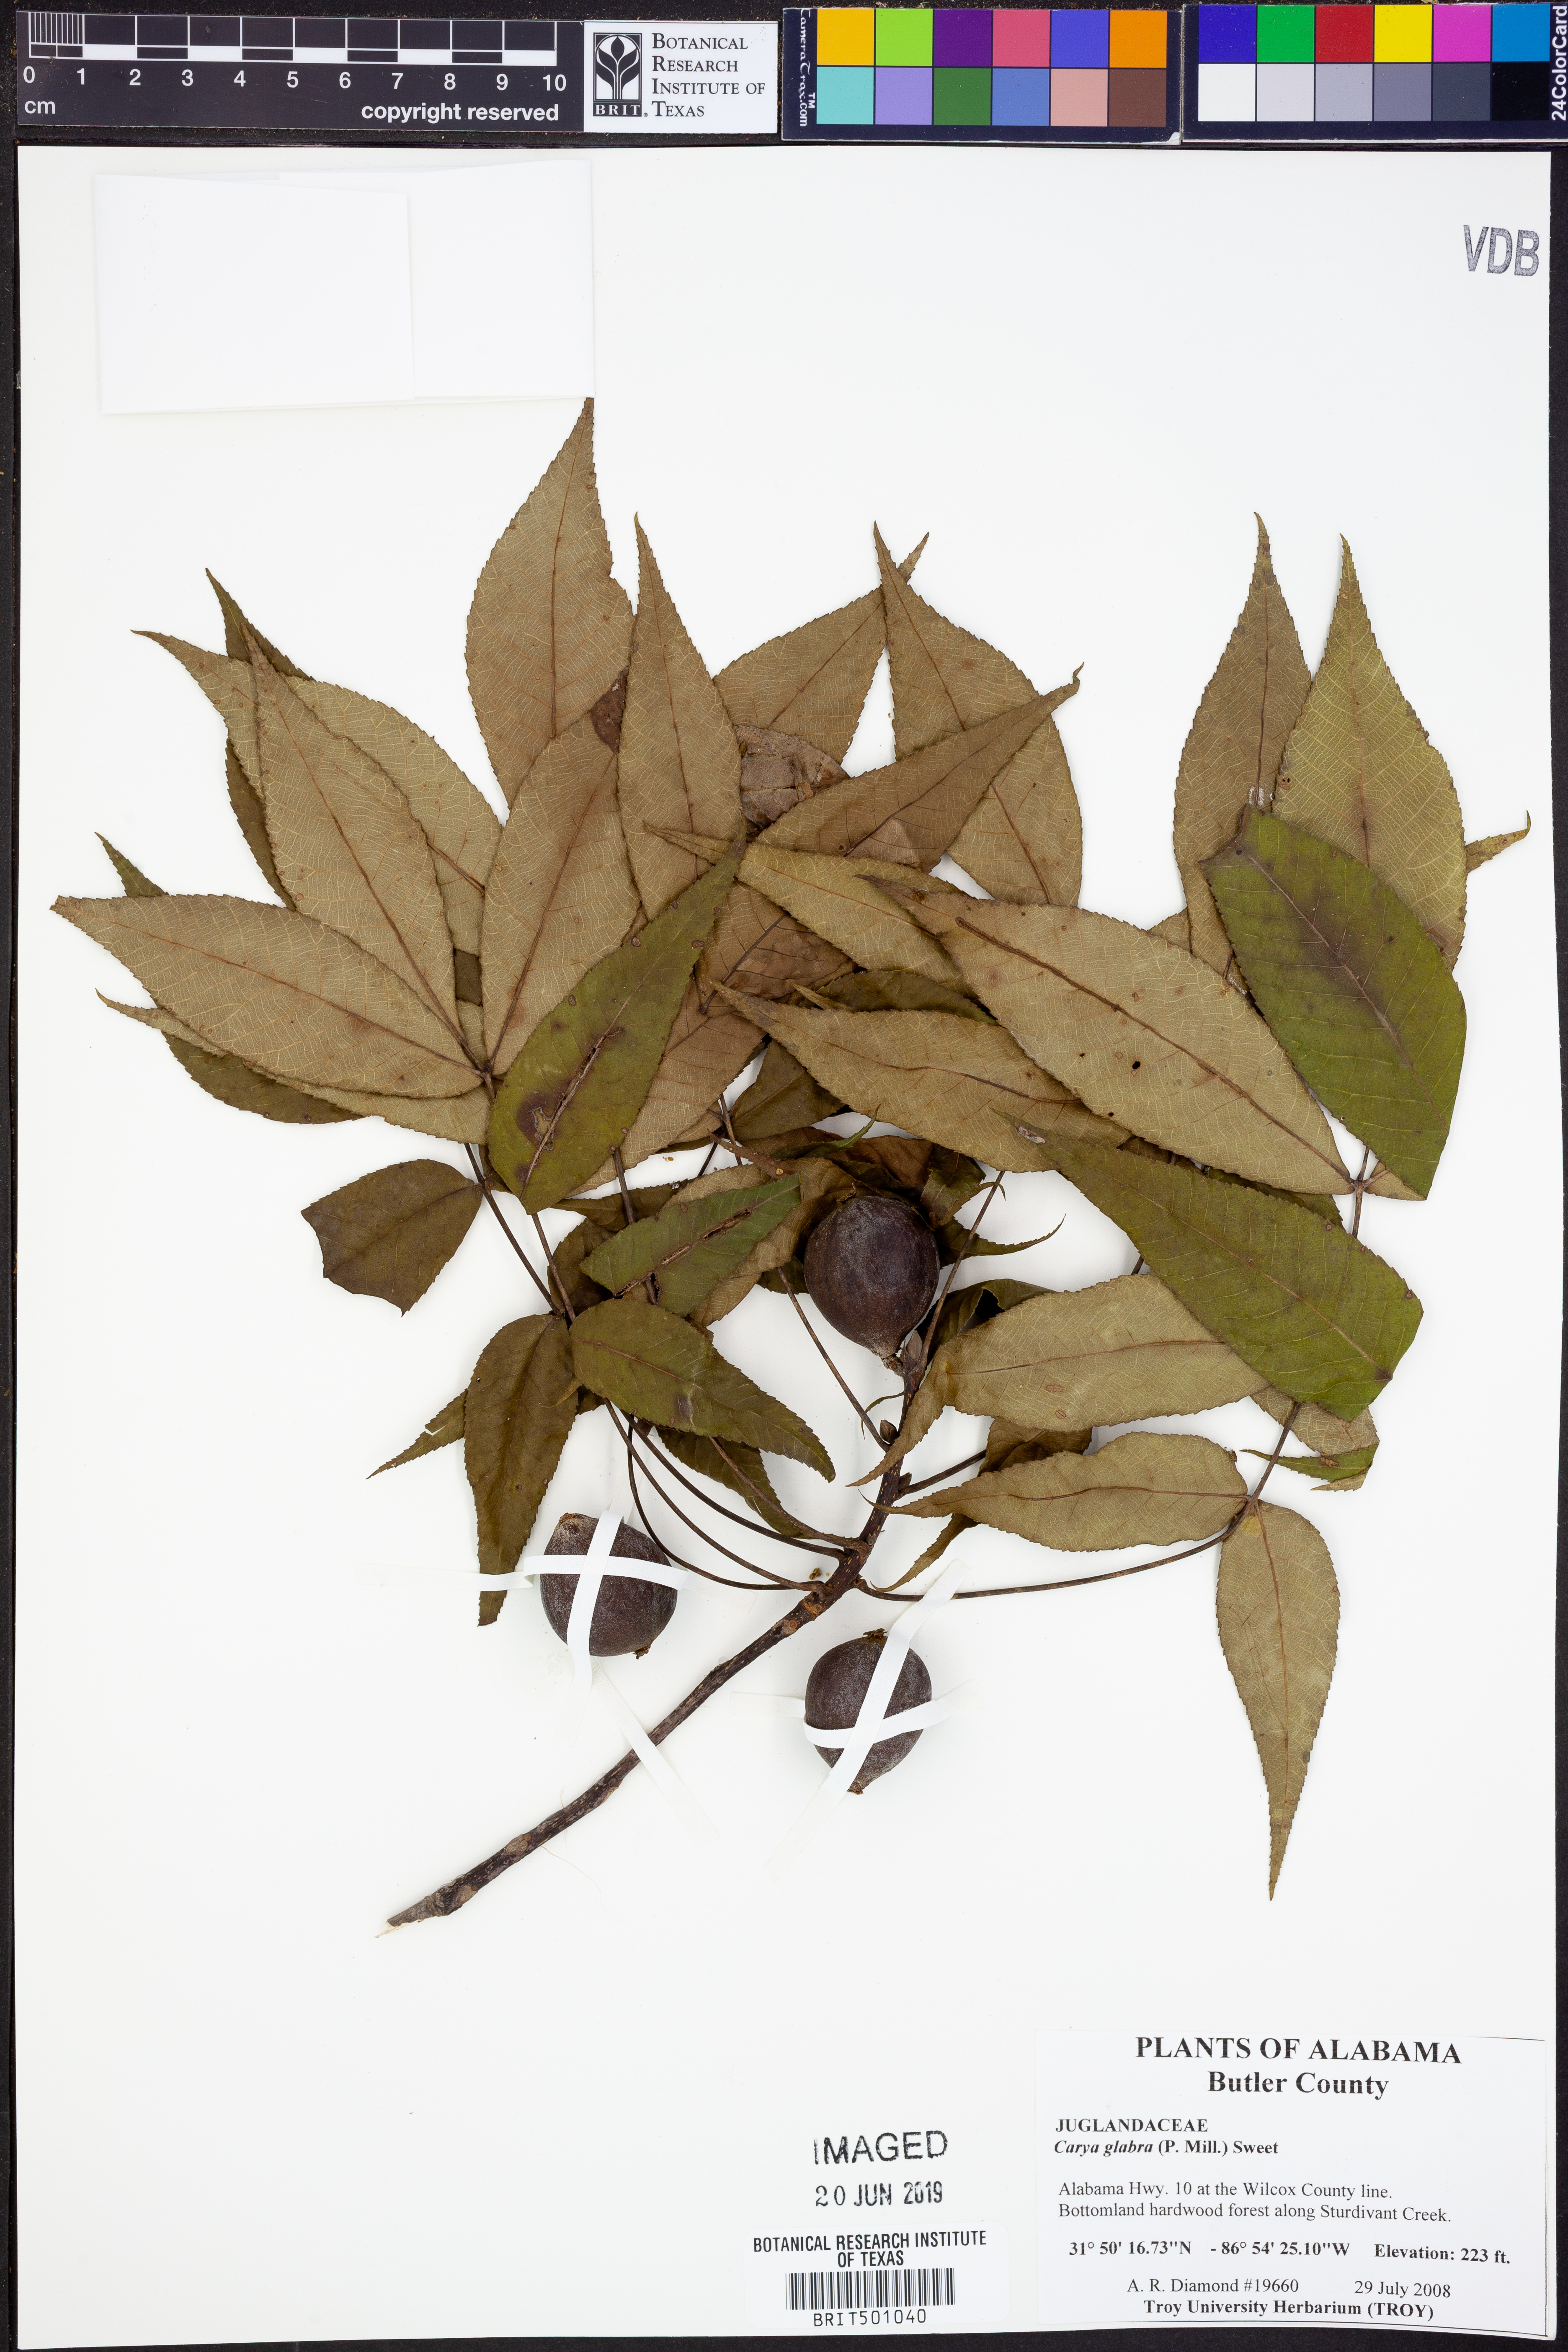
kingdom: Plantae
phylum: Tracheophyta
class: Magnoliopsida
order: Fagales
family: Juglandaceae
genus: Carya
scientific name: Carya glabra
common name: Pignut hickory
